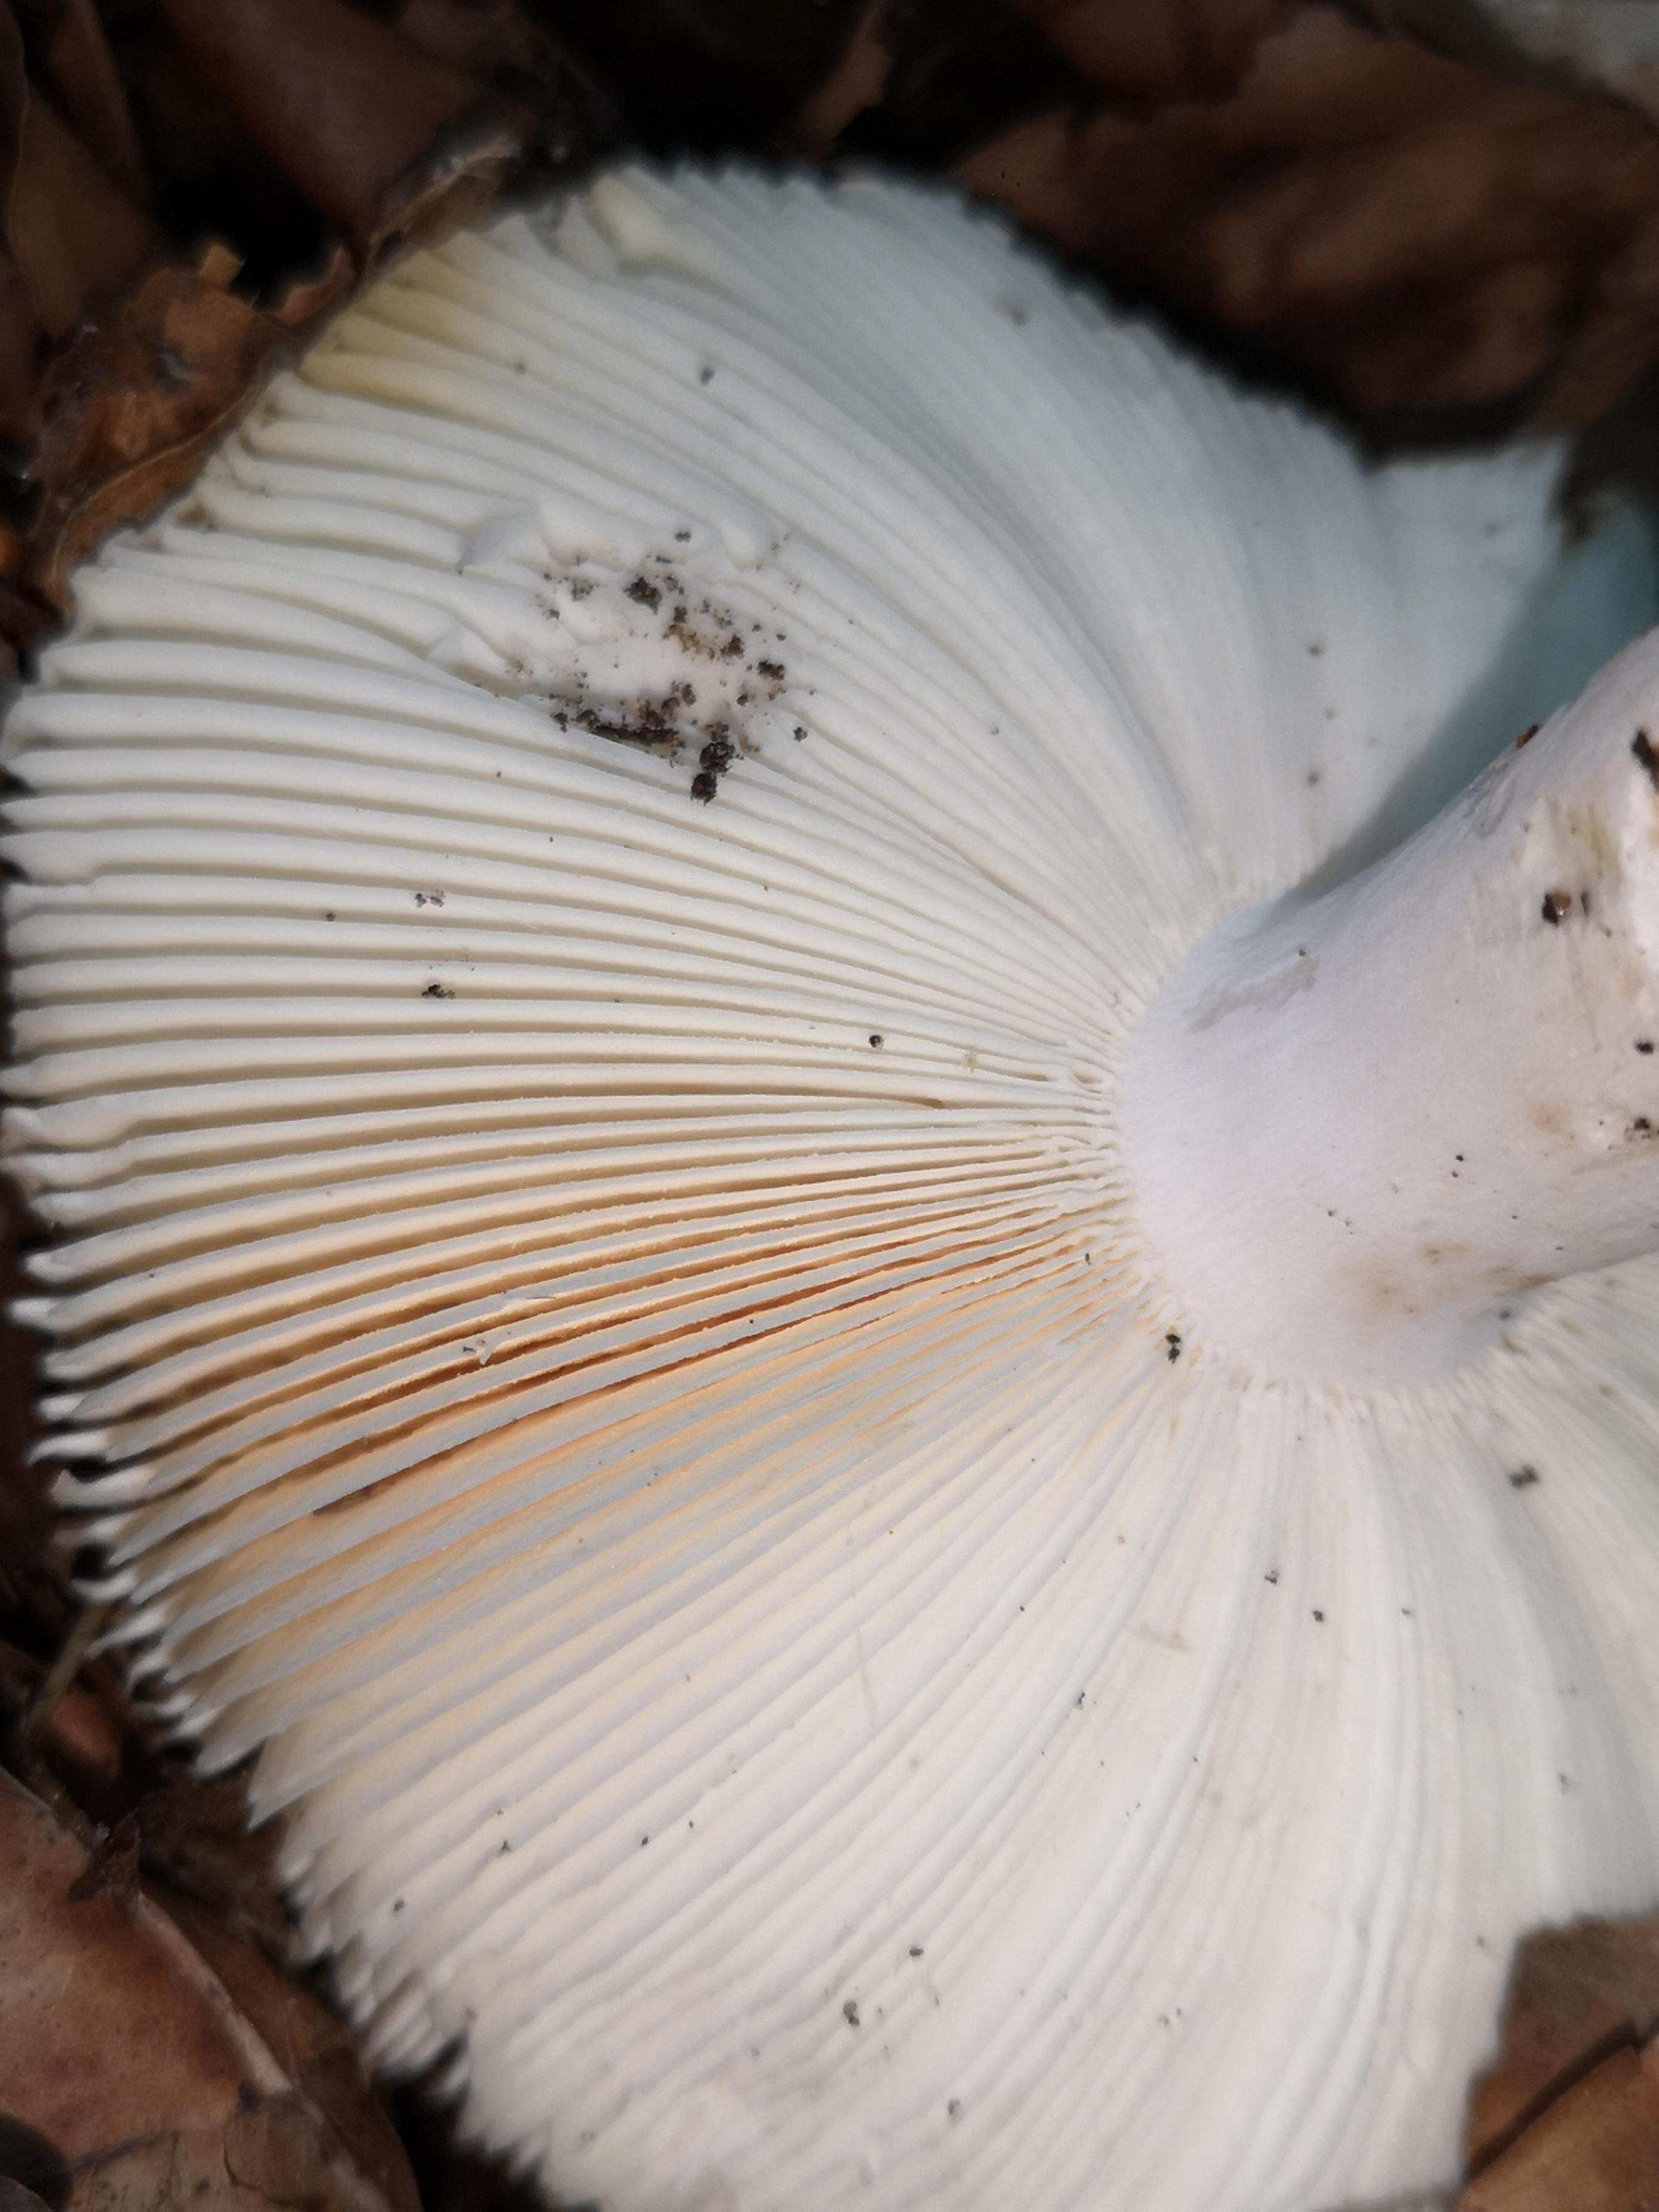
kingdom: Fungi
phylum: Basidiomycota
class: Agaricomycetes
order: Russulales
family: Russulaceae
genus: Russula
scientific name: Russula
